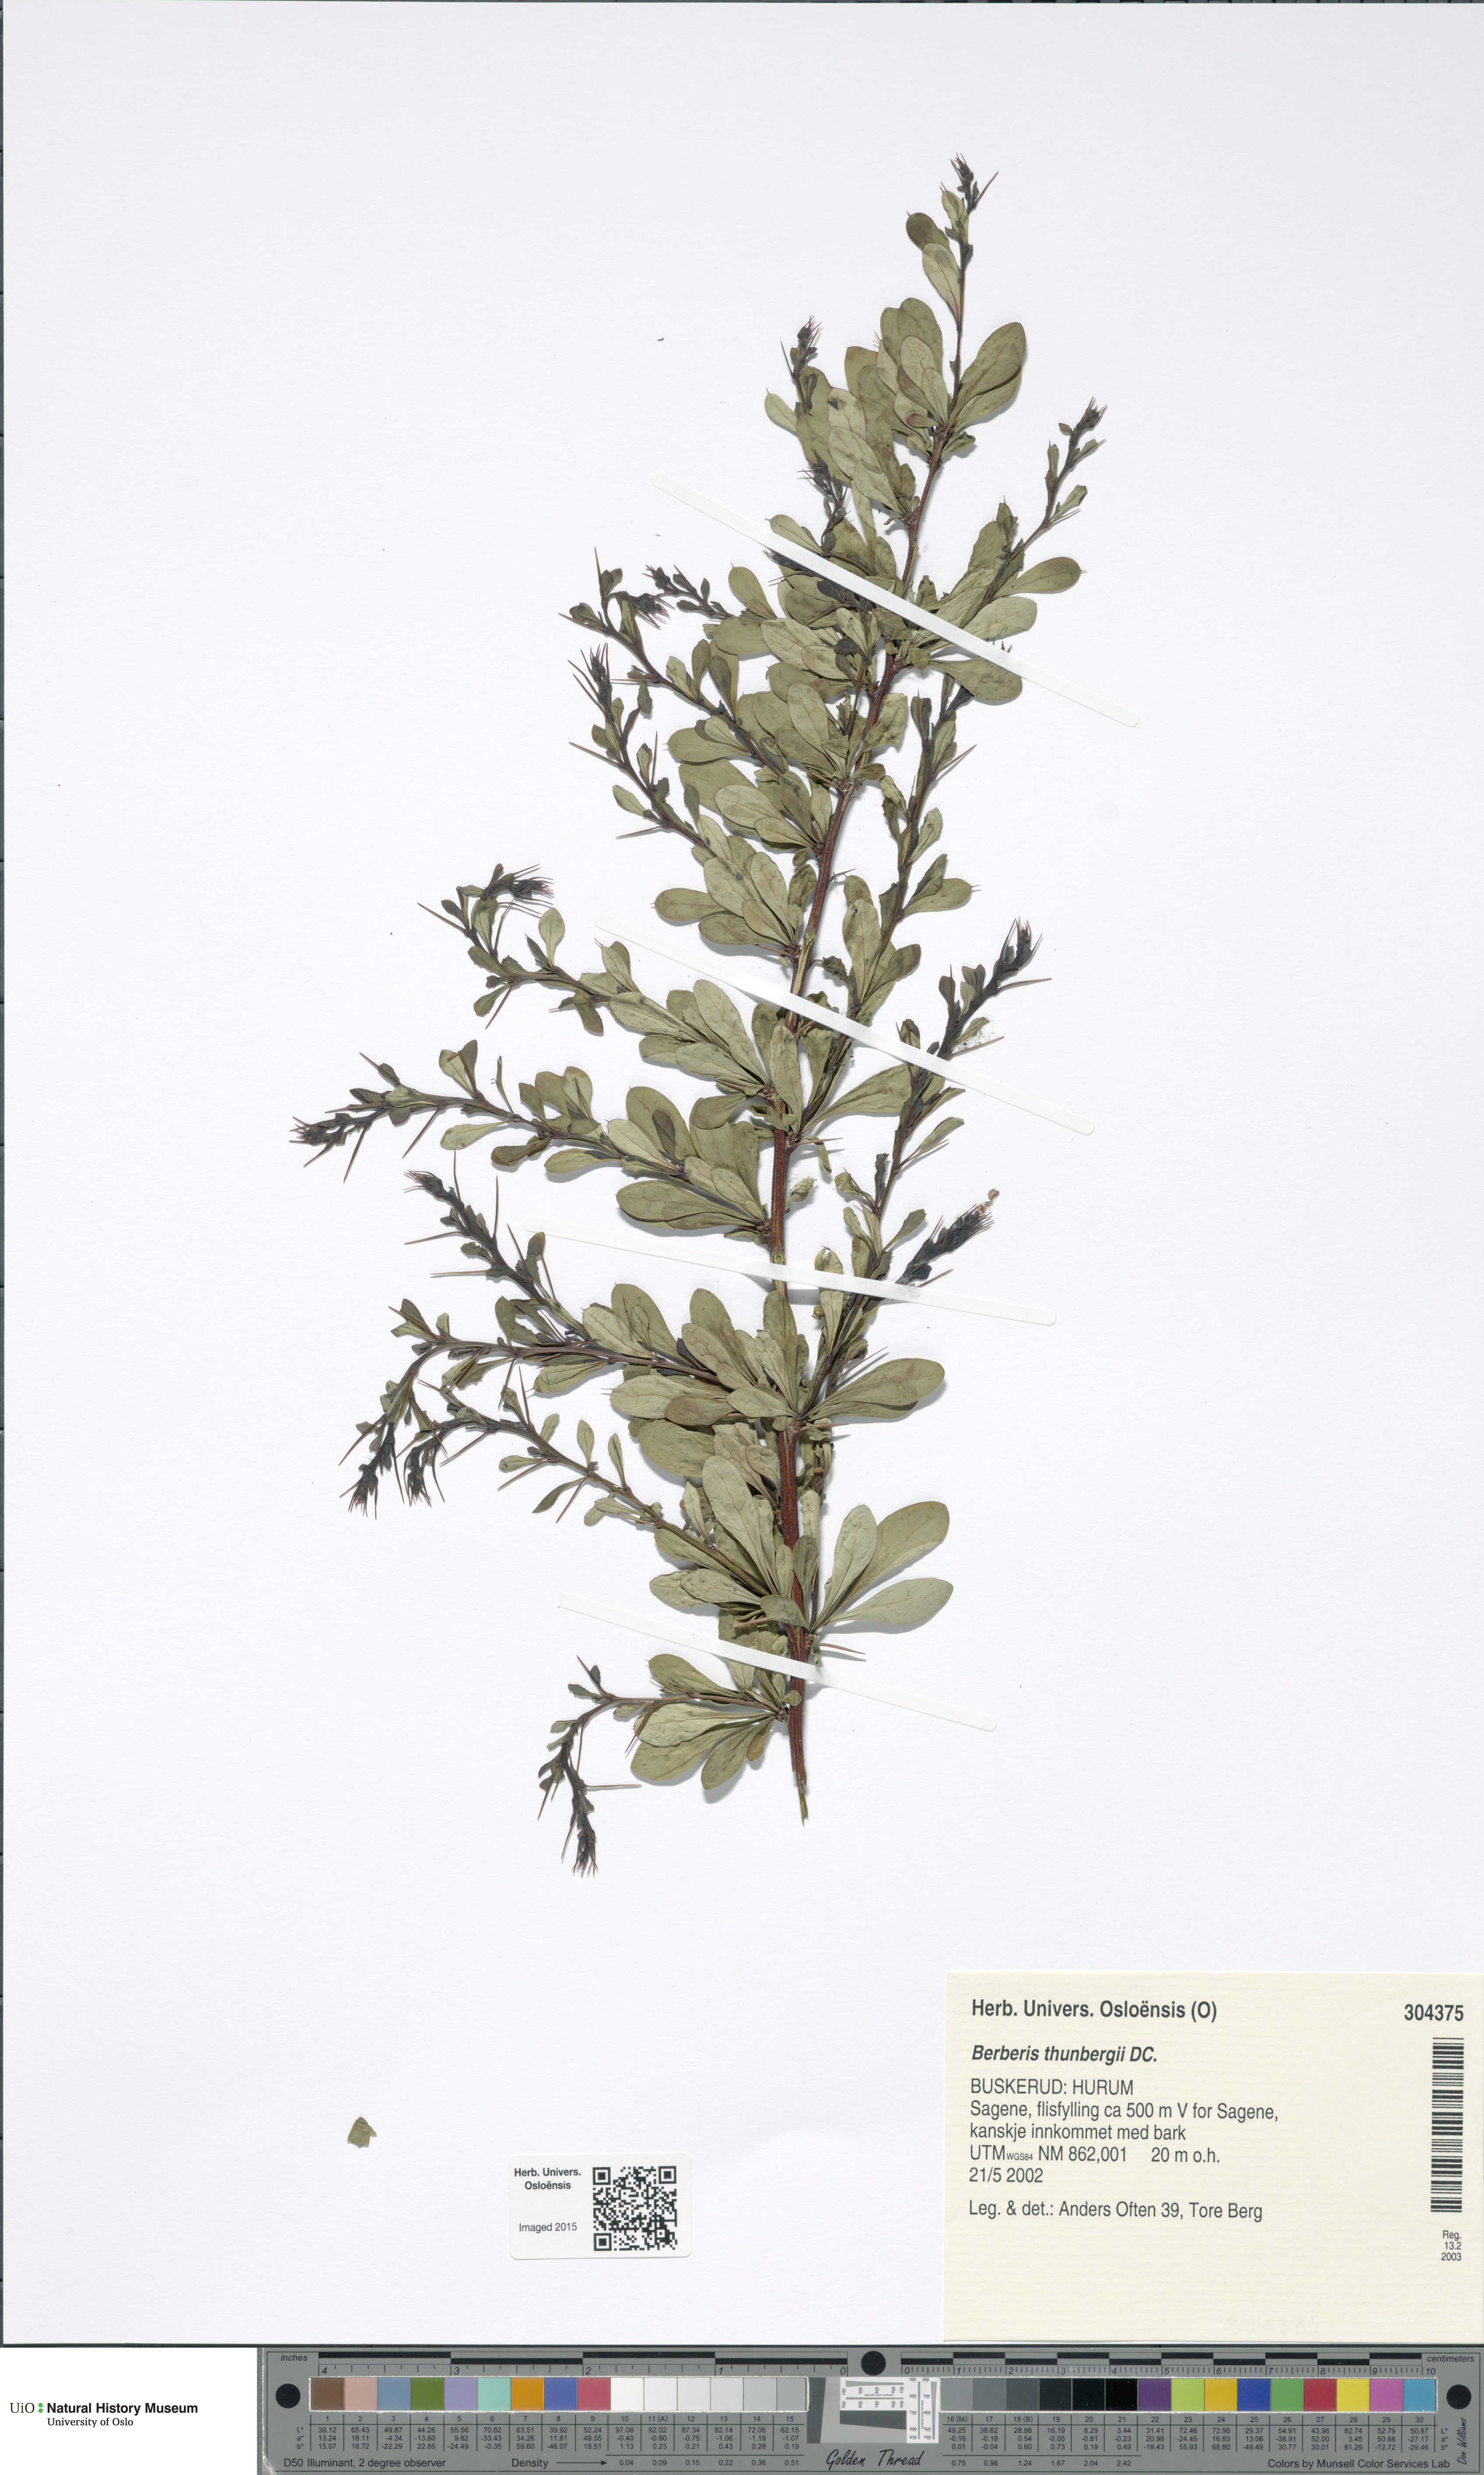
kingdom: Plantae
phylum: Tracheophyta
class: Magnoliopsida
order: Ranunculales
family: Berberidaceae
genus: Berberis
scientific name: Berberis thunbergii
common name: Japanese barberry
